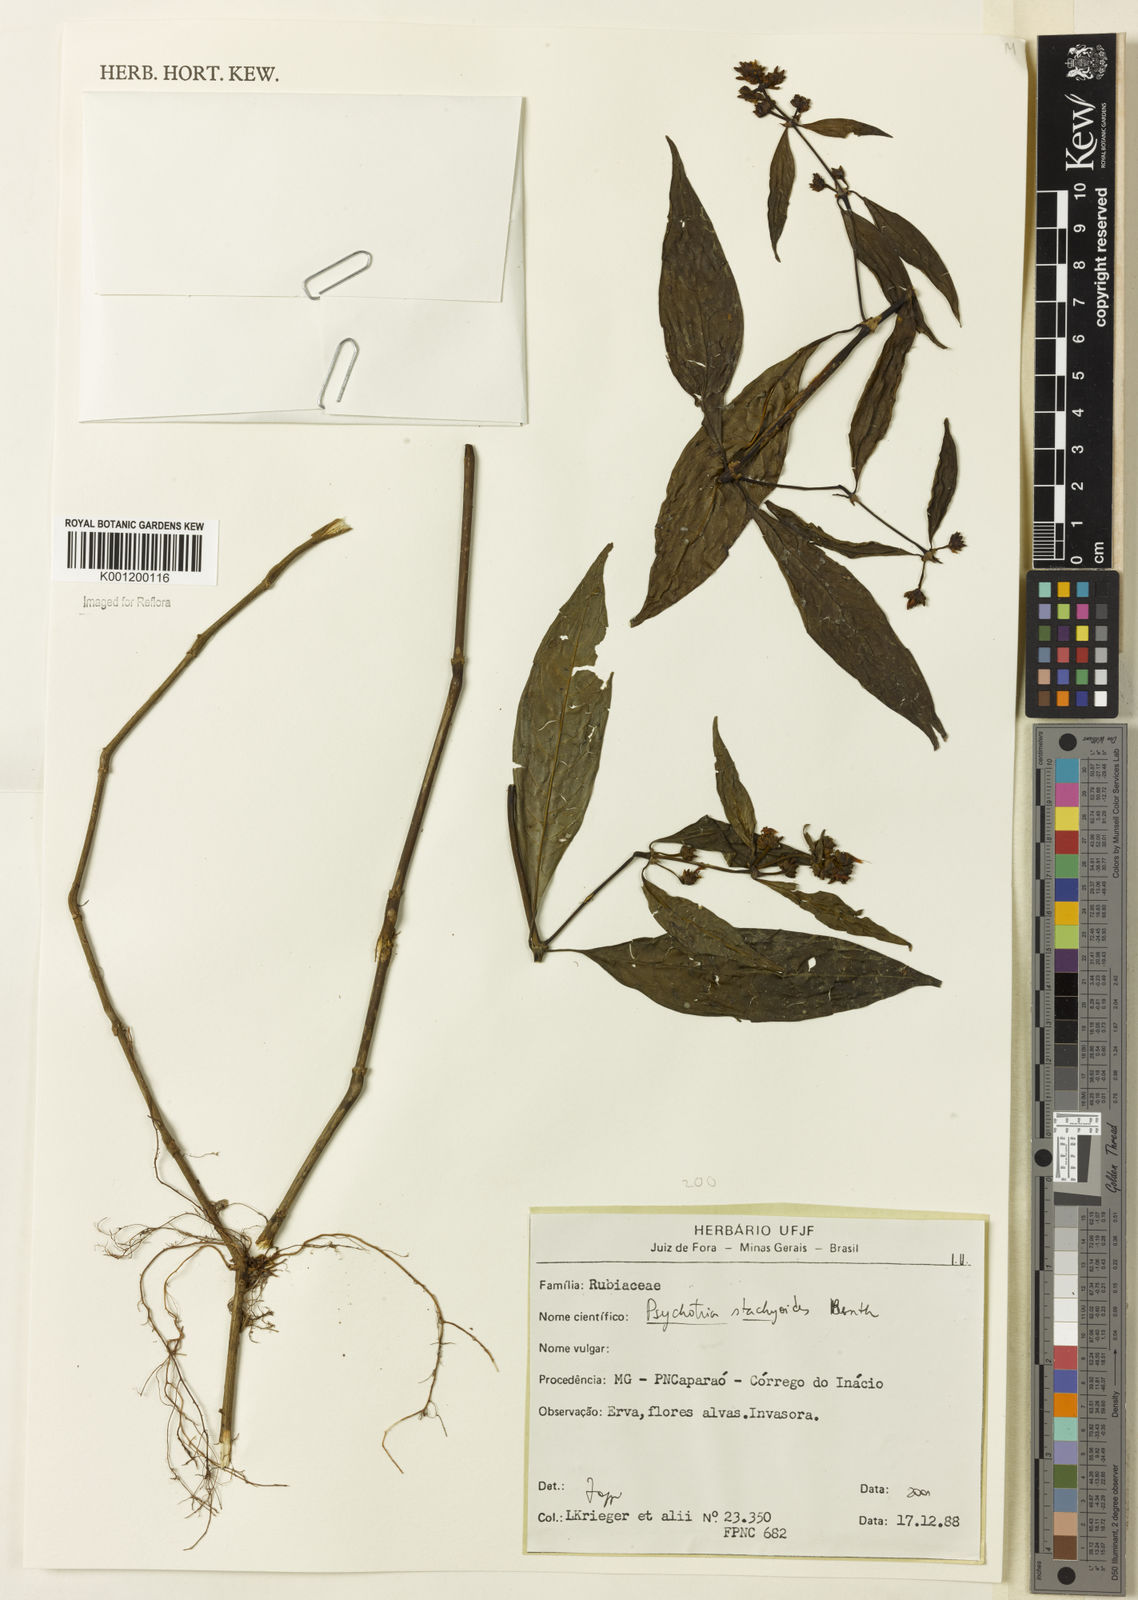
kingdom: Plantae
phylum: Tracheophyta
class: Magnoliopsida
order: Gentianales
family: Rubiaceae
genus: Psychotria
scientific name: Psychotria stachyoides
